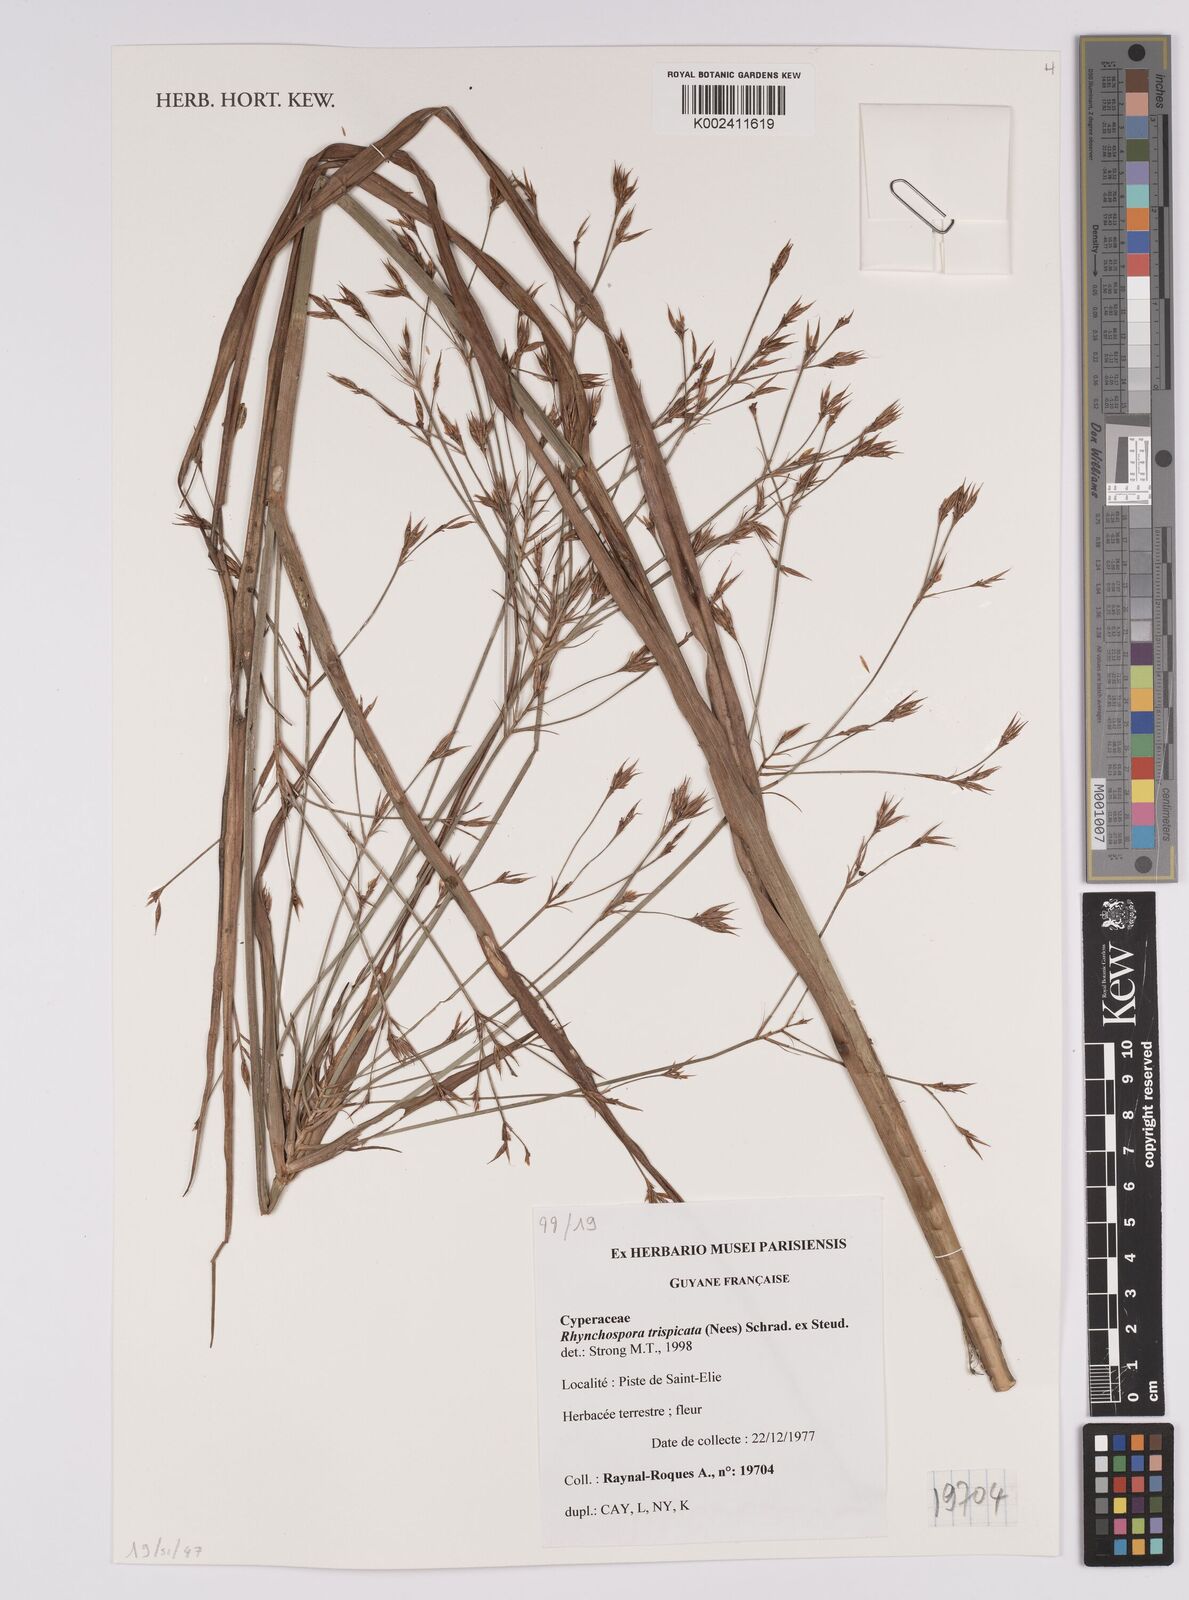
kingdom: Plantae
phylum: Tracheophyta
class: Liliopsida
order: Poales
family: Cyperaceae
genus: Rhynchospora
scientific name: Rhynchospora trispicata
